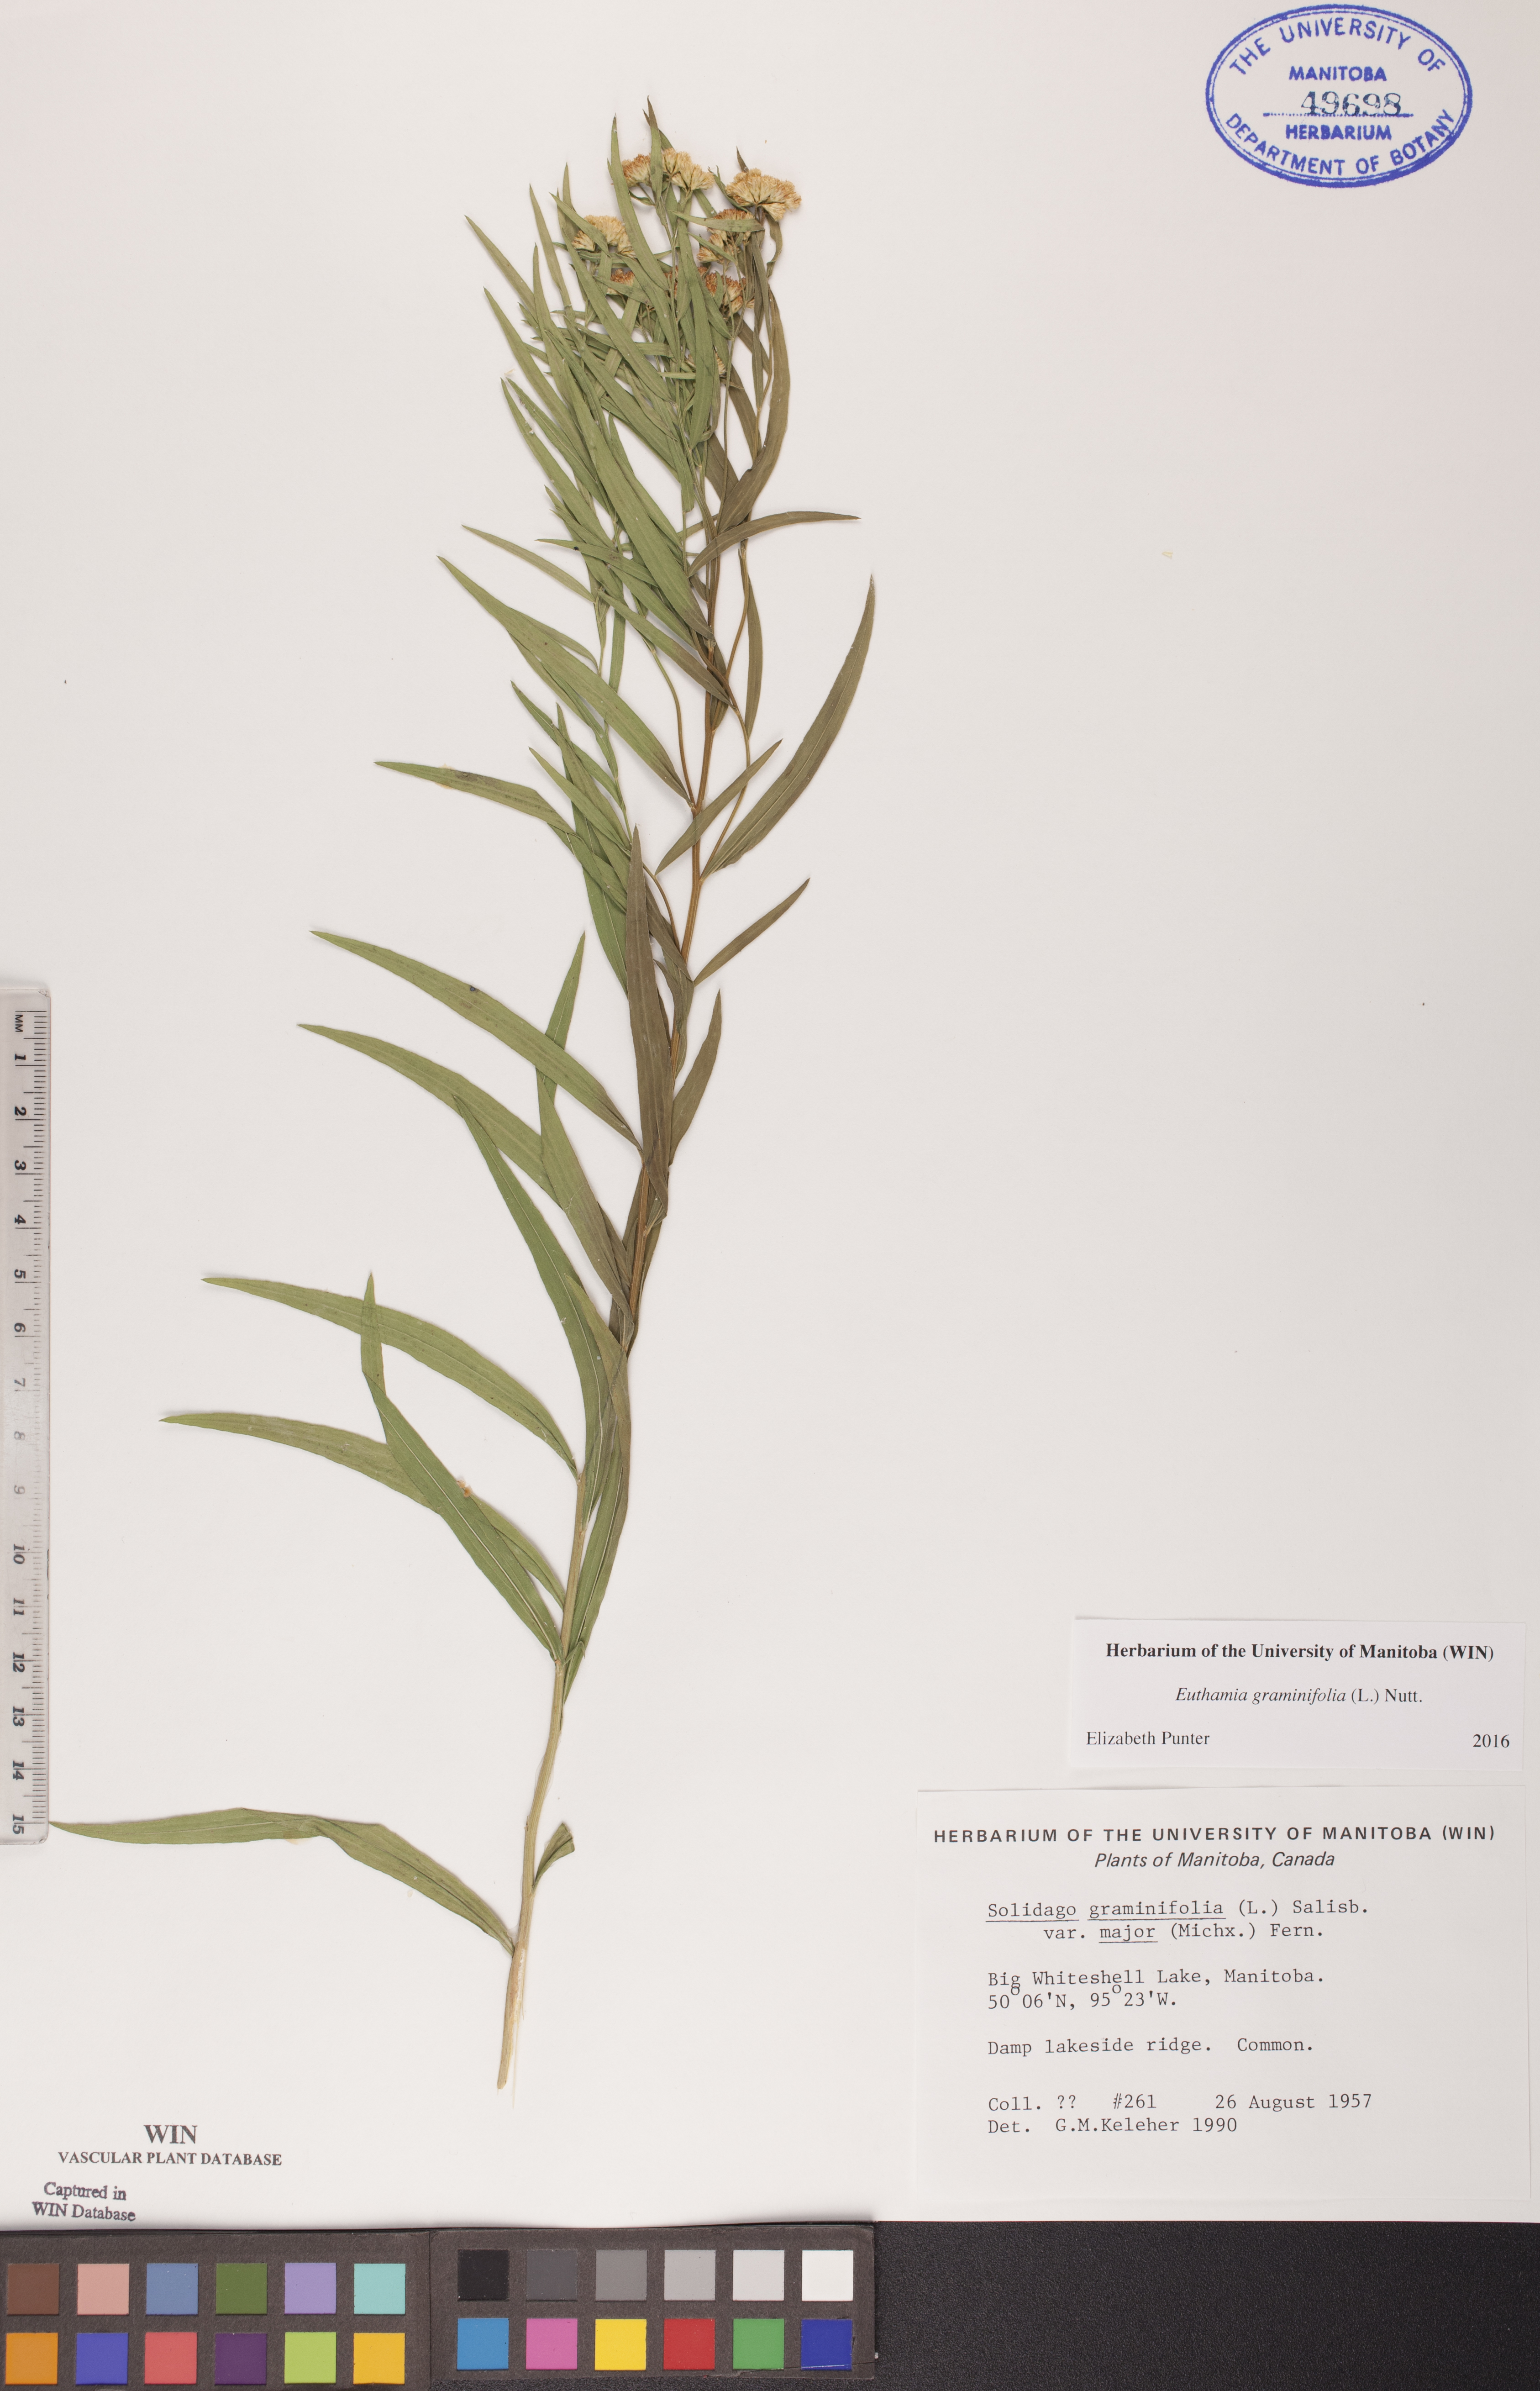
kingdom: Plantae
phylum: Tracheophyta
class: Magnoliopsida
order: Asterales
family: Asteraceae
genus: Euthamia
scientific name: Euthamia graminifolia
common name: Common goldentop
